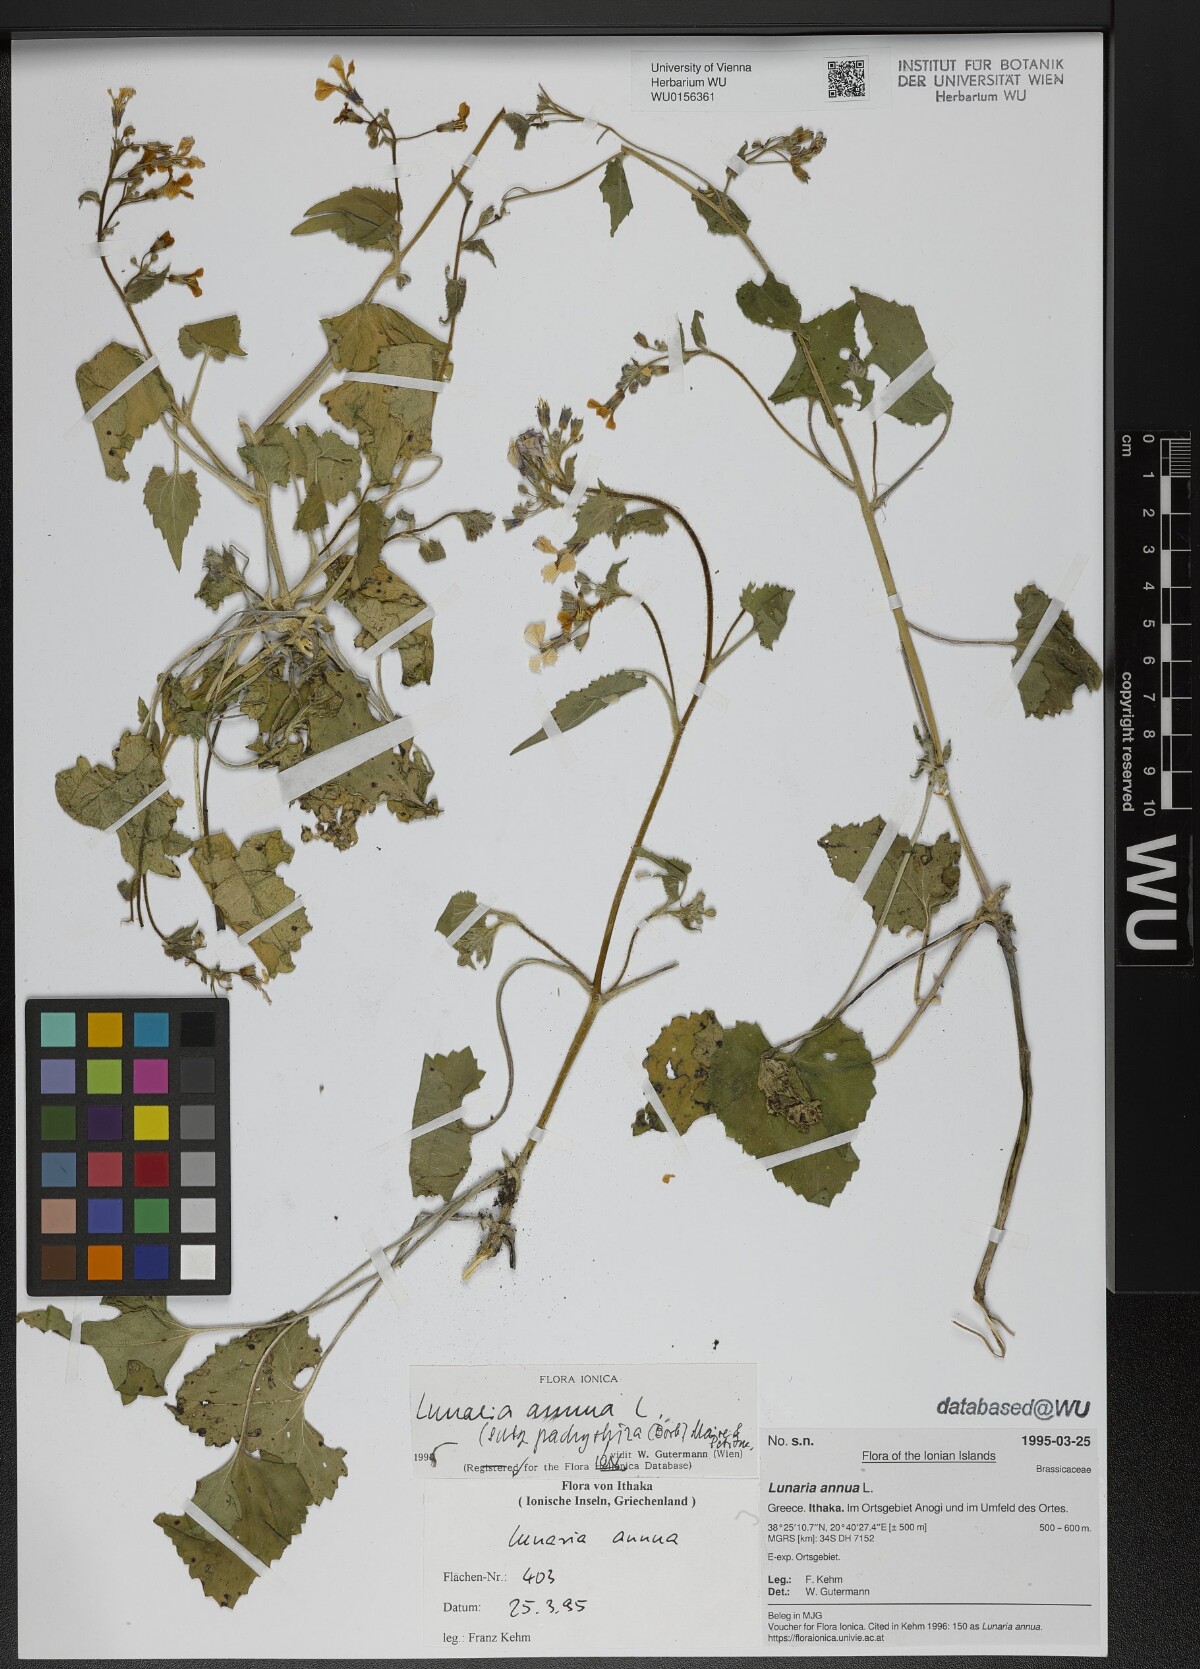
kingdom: Plantae
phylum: Tracheophyta
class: Magnoliopsida
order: Brassicales
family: Brassicaceae
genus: Lunaria
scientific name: Lunaria annua
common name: Honesty
